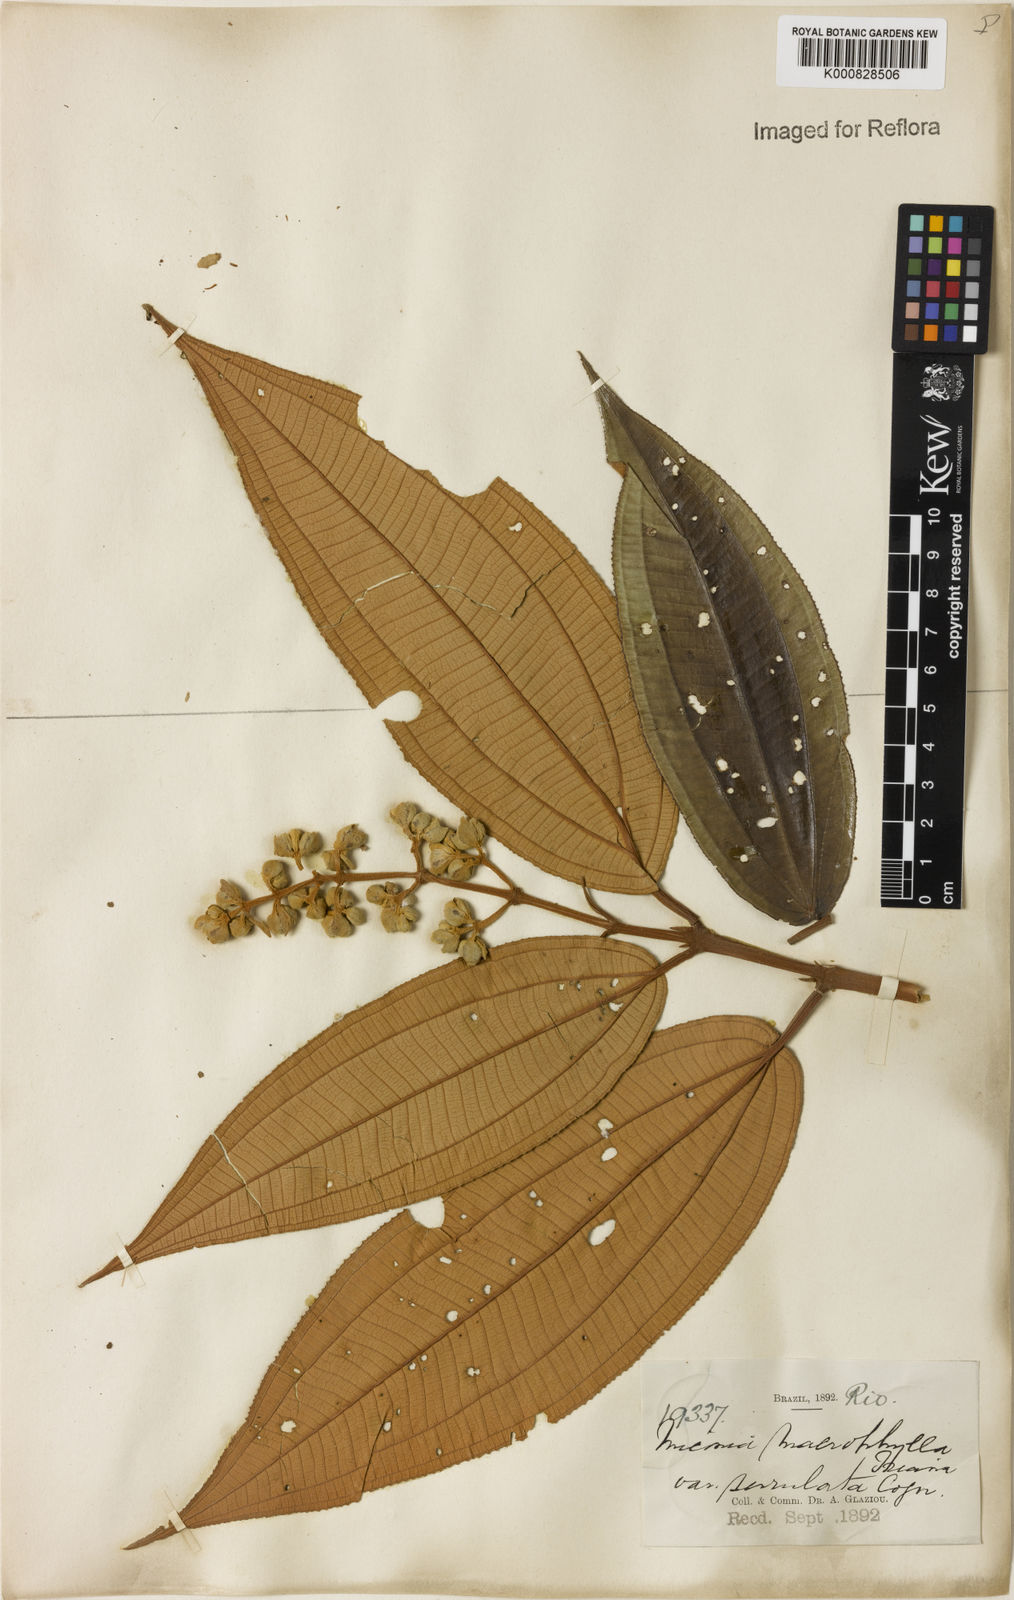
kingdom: Plantae
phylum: Tracheophyta
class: Magnoliopsida
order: Myrtales
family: Melastomataceae
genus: Miconia
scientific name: Miconia serrulata
